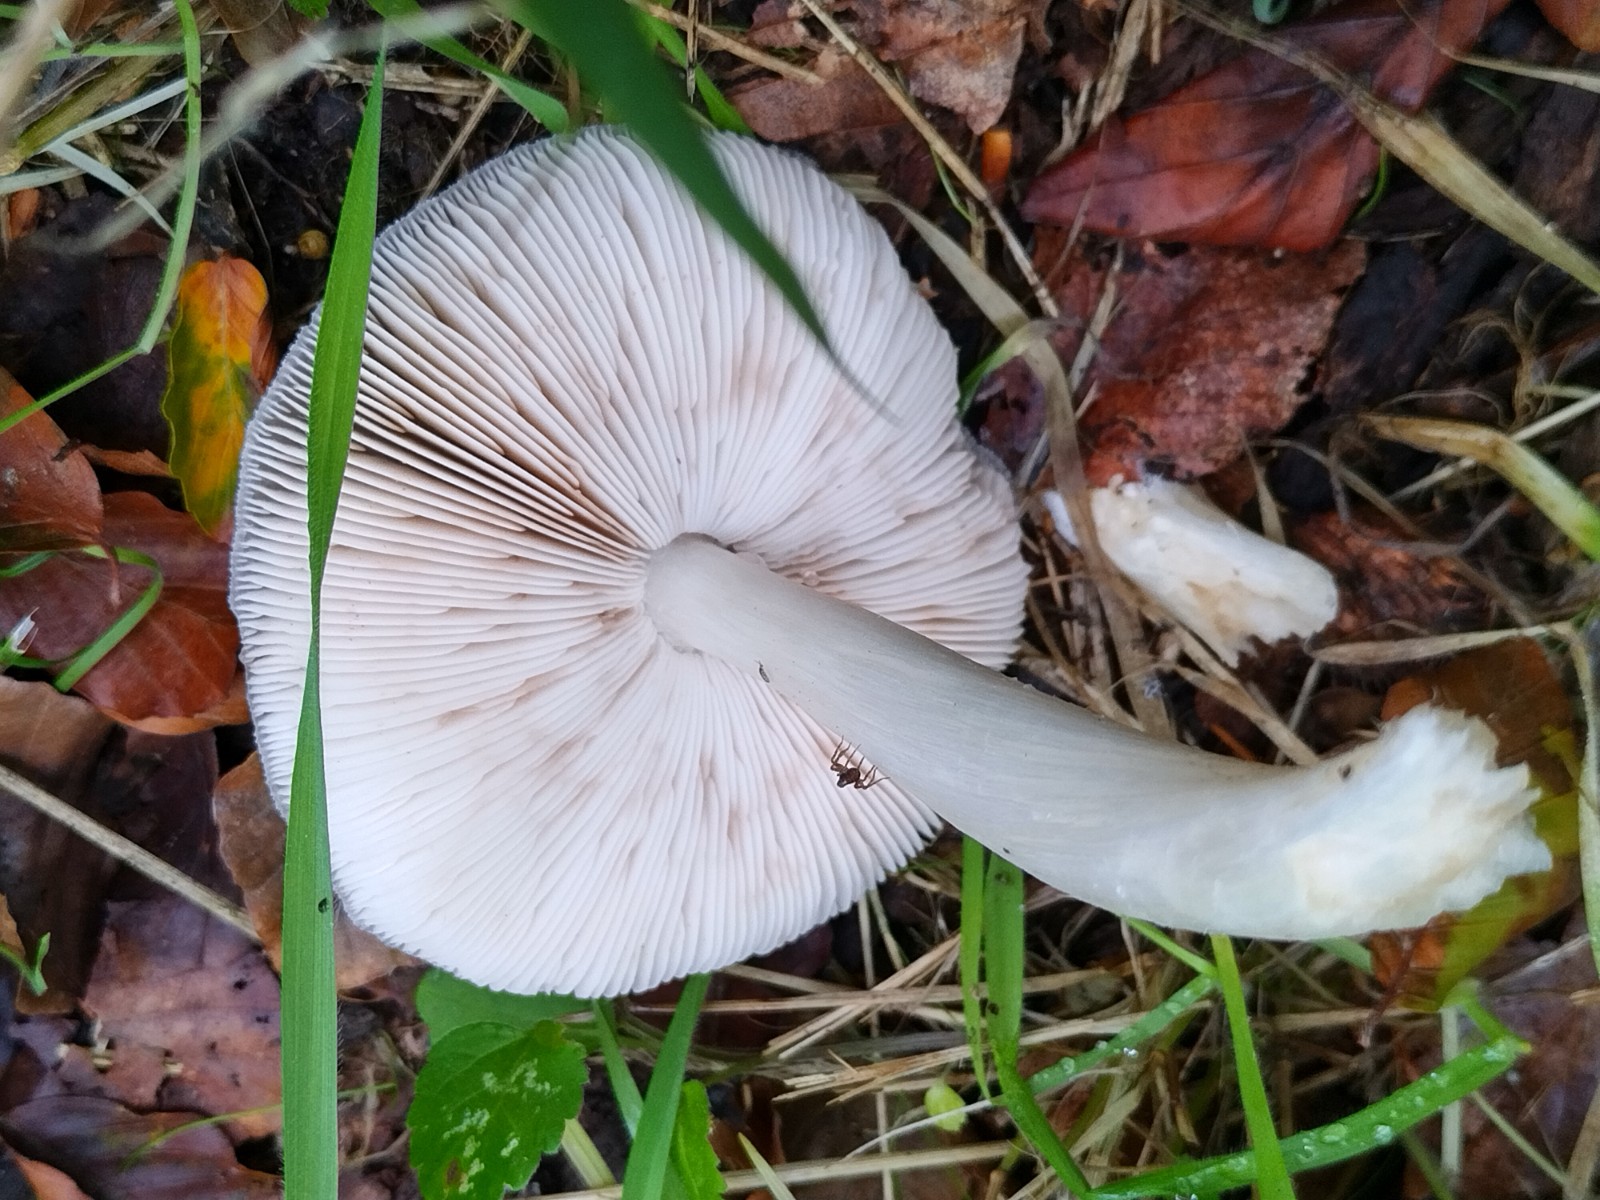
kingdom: Fungi
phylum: Basidiomycota
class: Agaricomycetes
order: Agaricales
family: Pluteaceae
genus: Pluteus
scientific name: Pluteus salicinus
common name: stiv skærmhat
